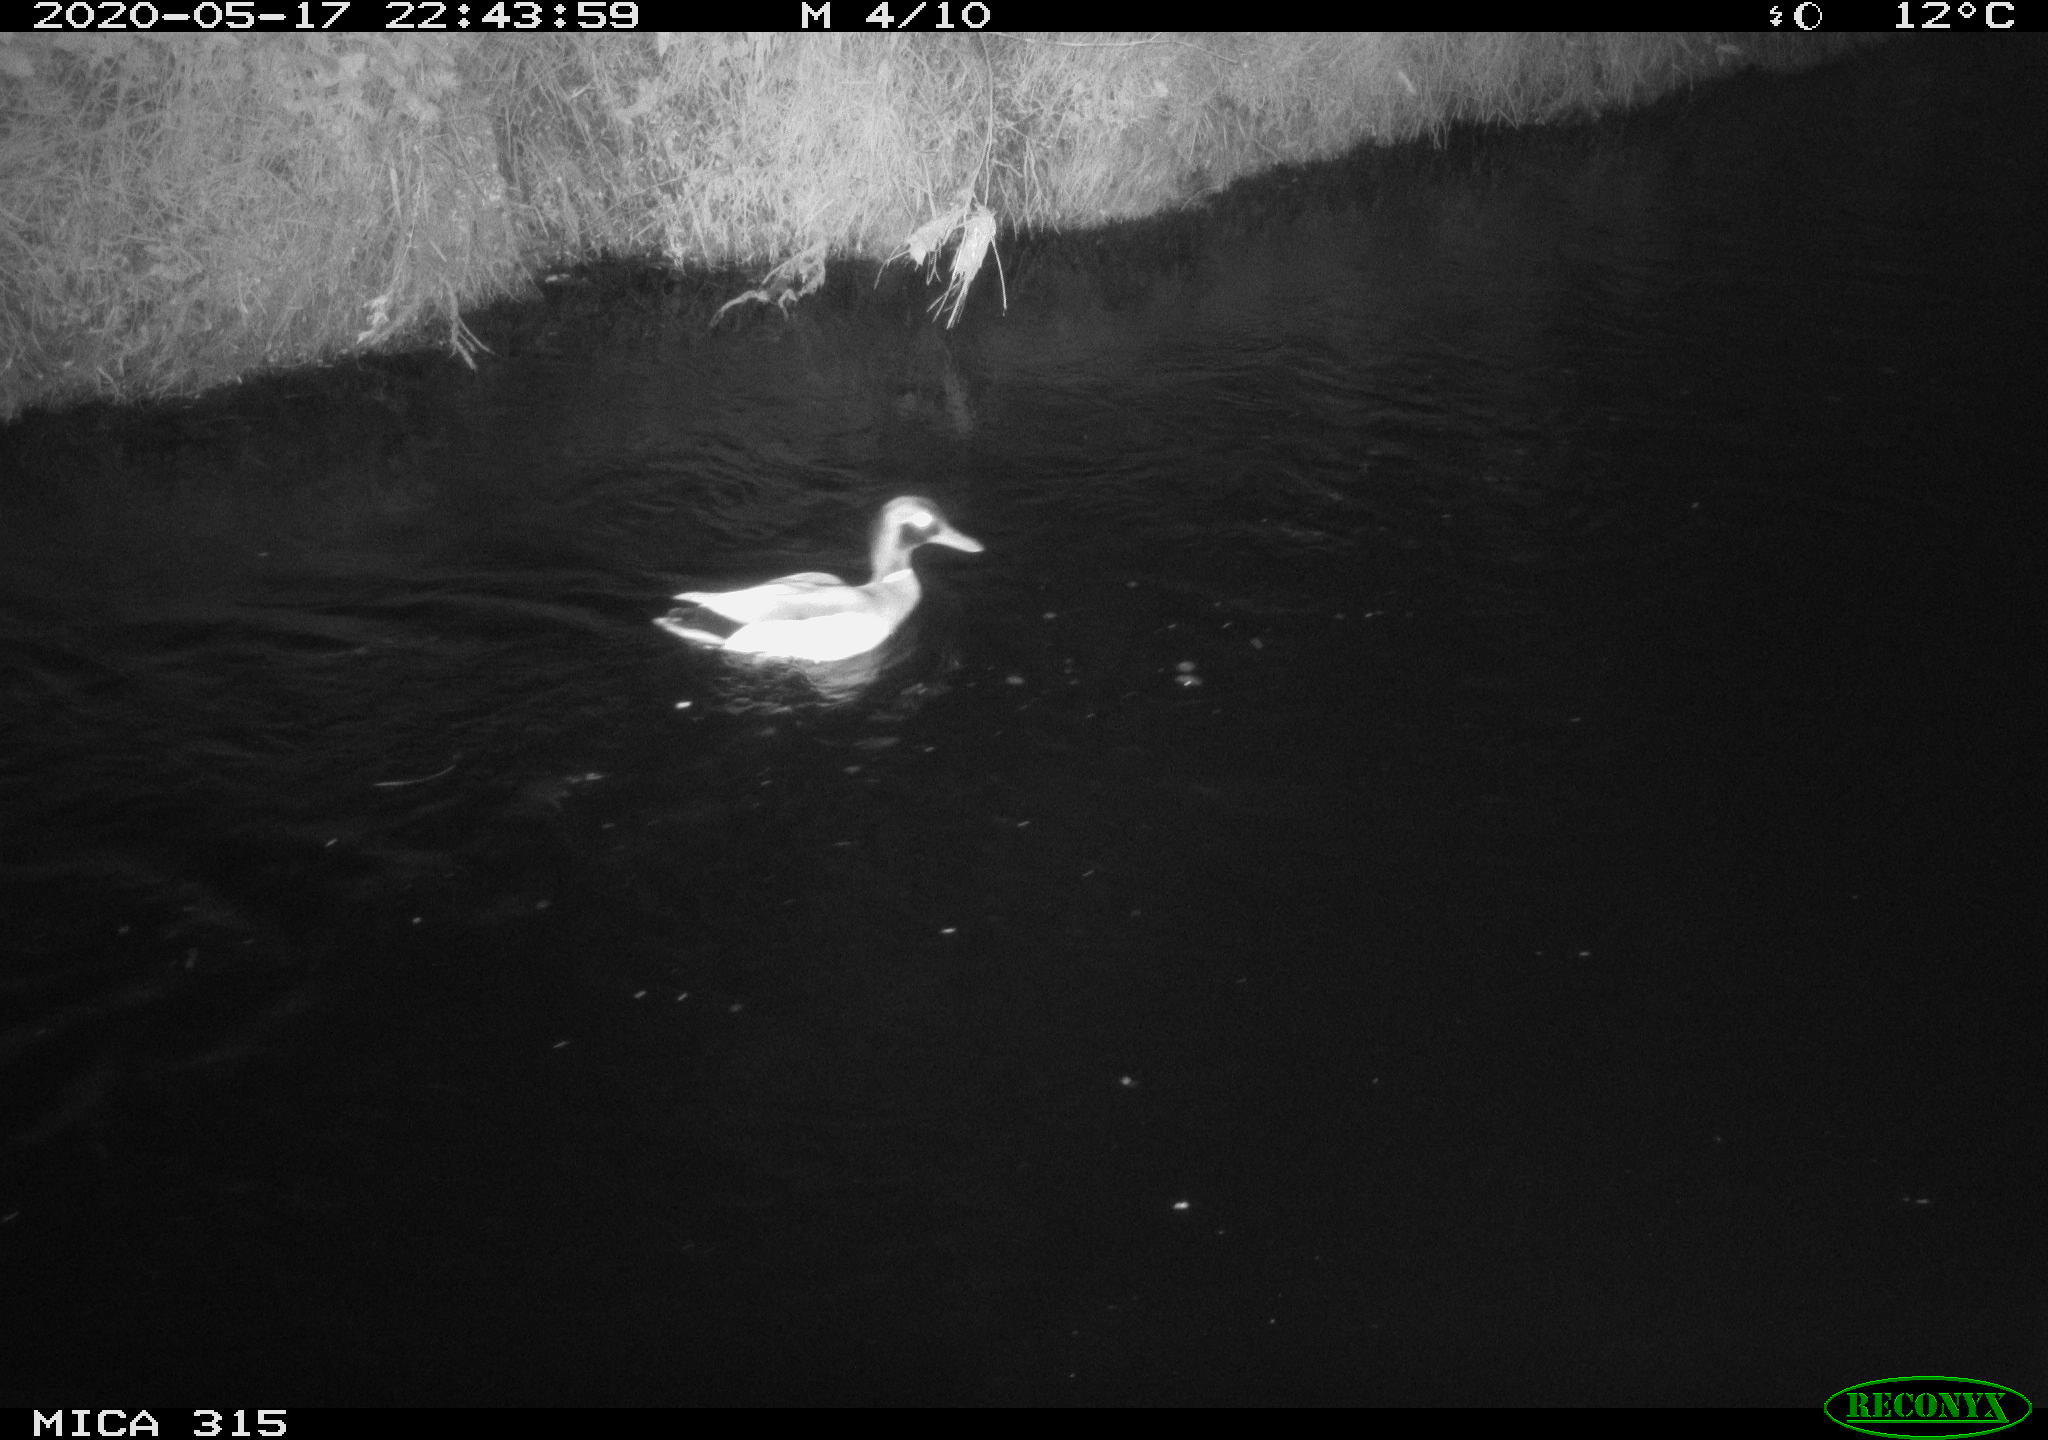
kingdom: Animalia
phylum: Chordata
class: Aves
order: Anseriformes
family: Anatidae
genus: Anas
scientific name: Anas platyrhynchos
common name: Mallard
